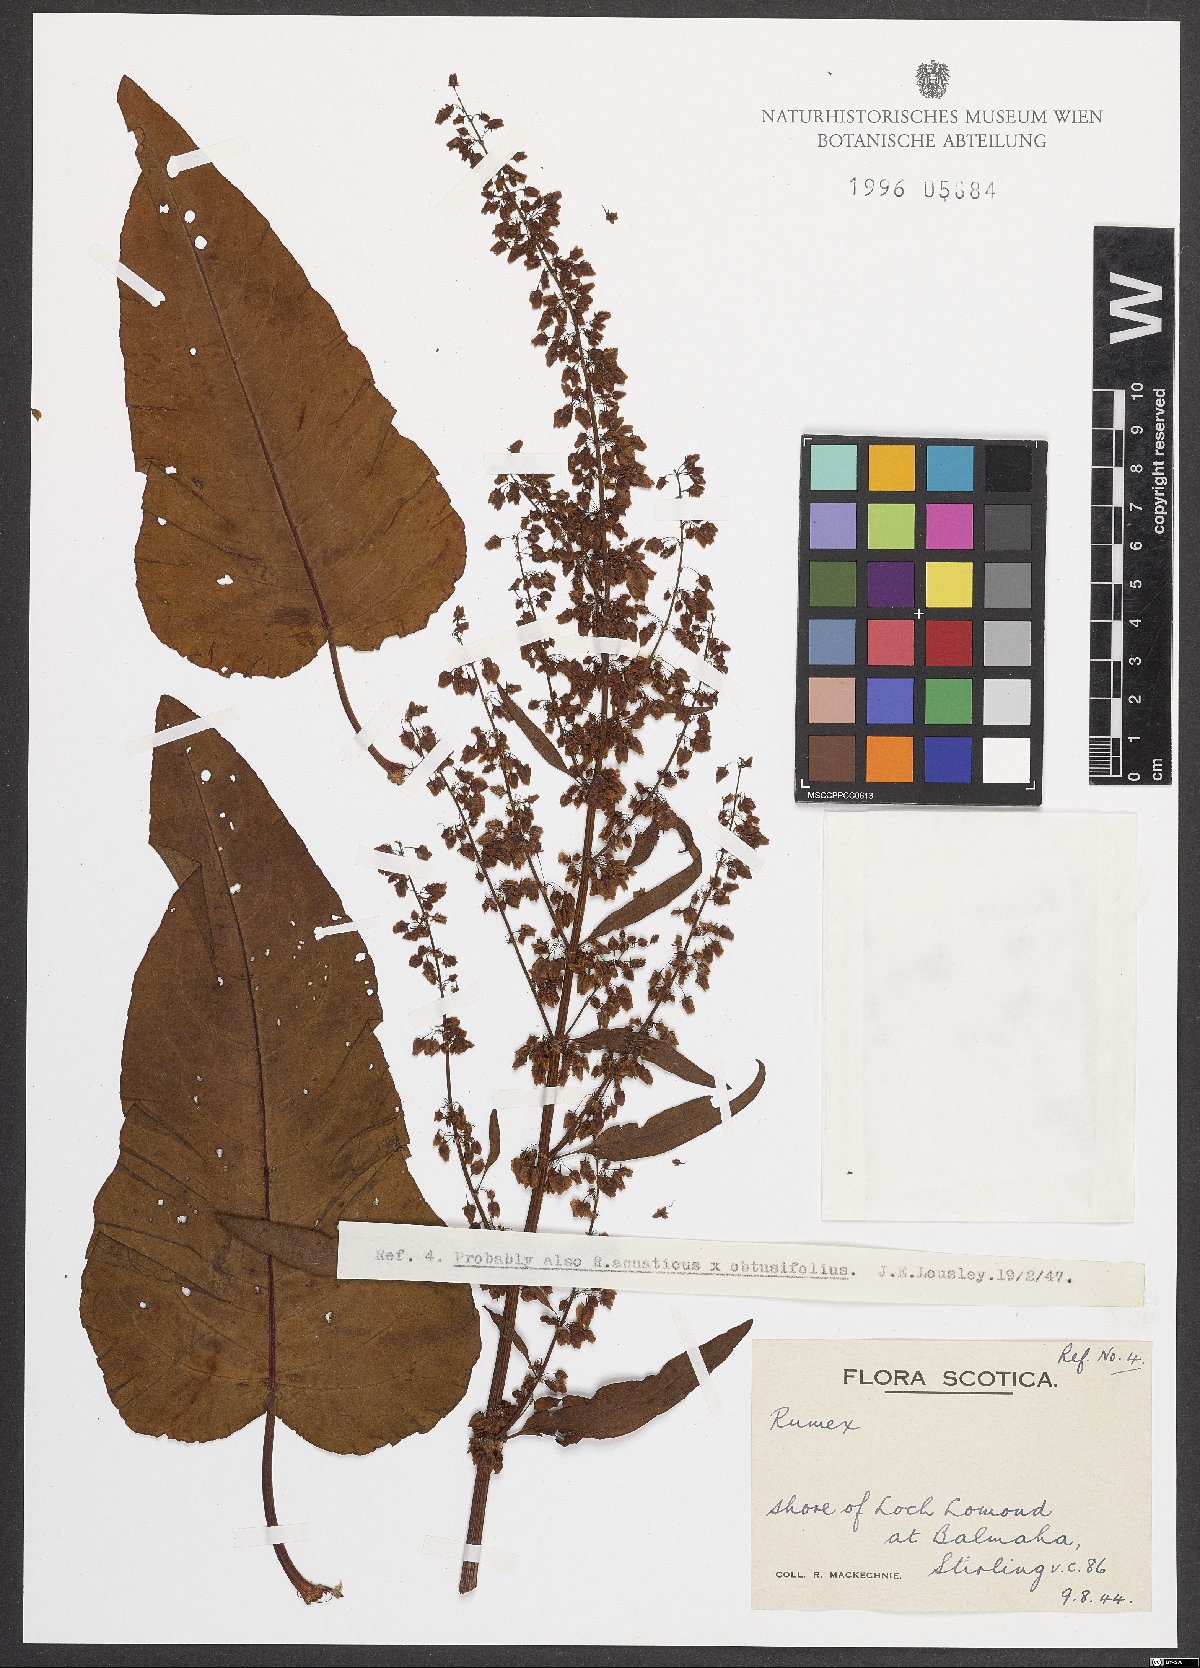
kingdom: Plantae
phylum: Tracheophyta
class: Magnoliopsida
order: Caryophyllales
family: Polygonaceae
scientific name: Polygonaceae
